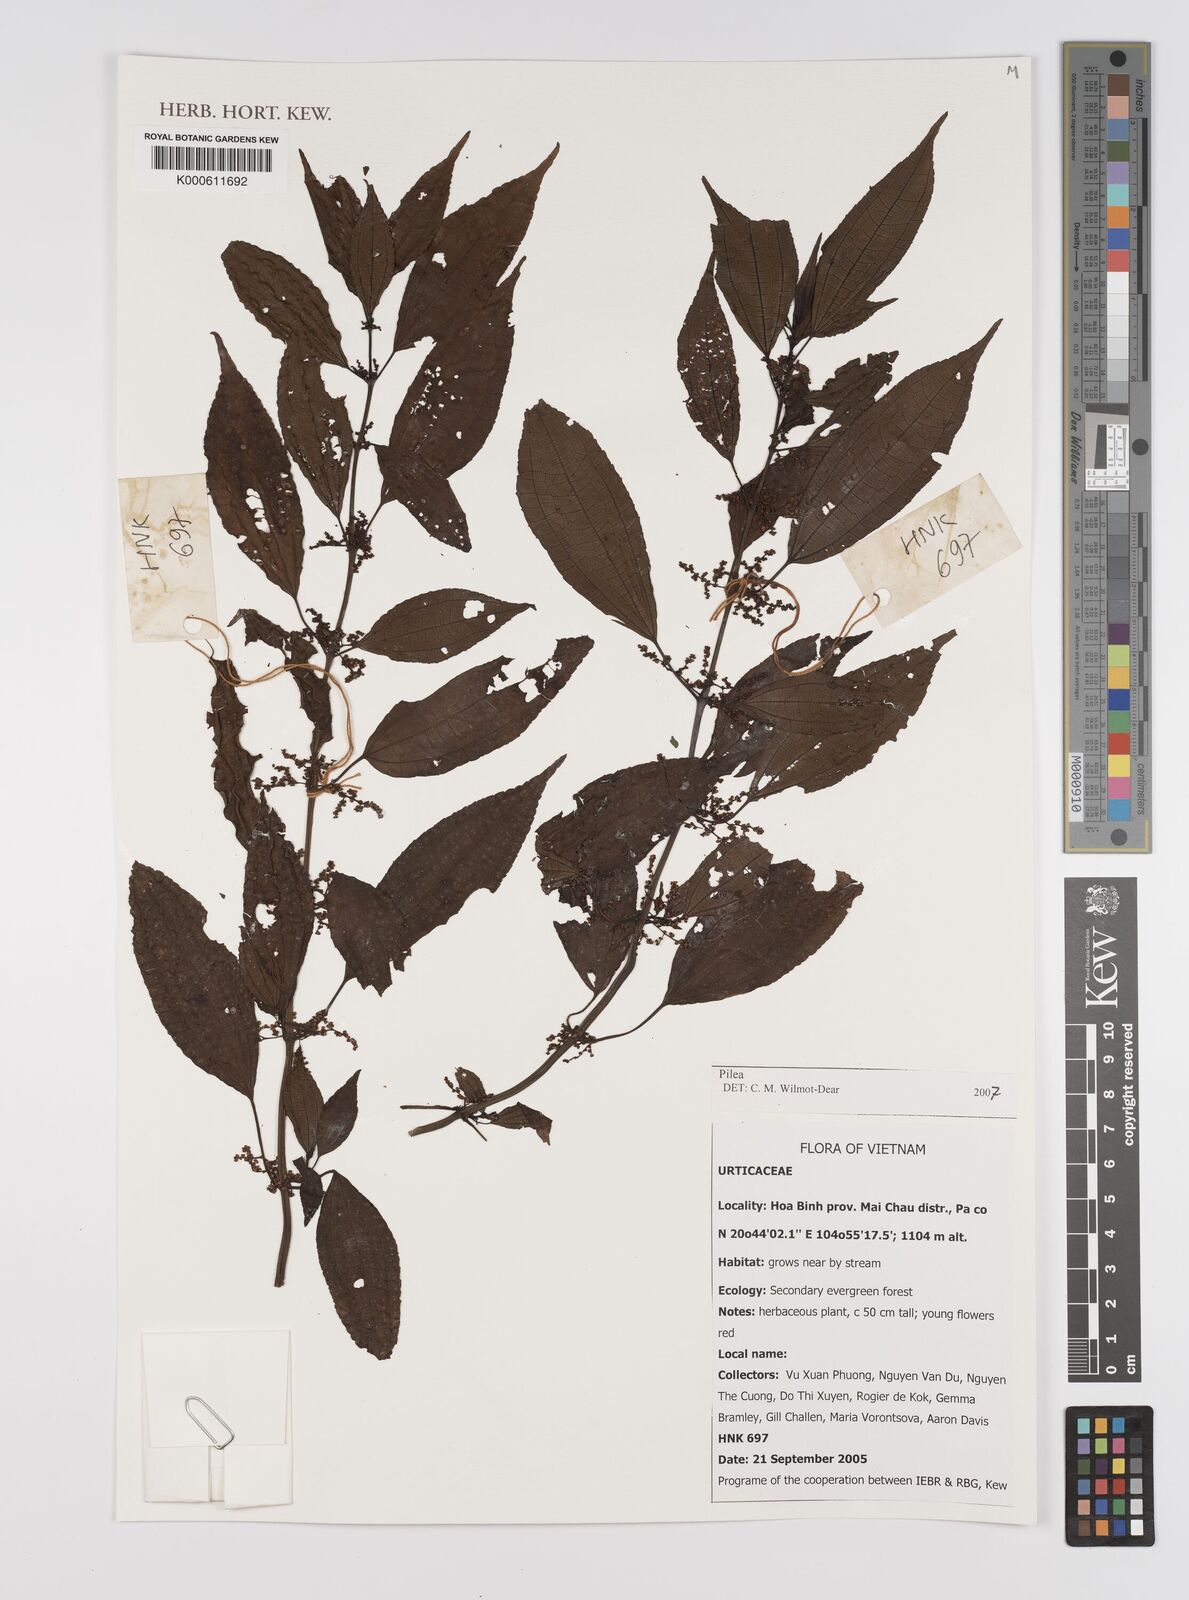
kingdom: Plantae
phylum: Tracheophyta
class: Magnoliopsida
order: Rosales
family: Urticaceae
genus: Pilea
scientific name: Pilea
